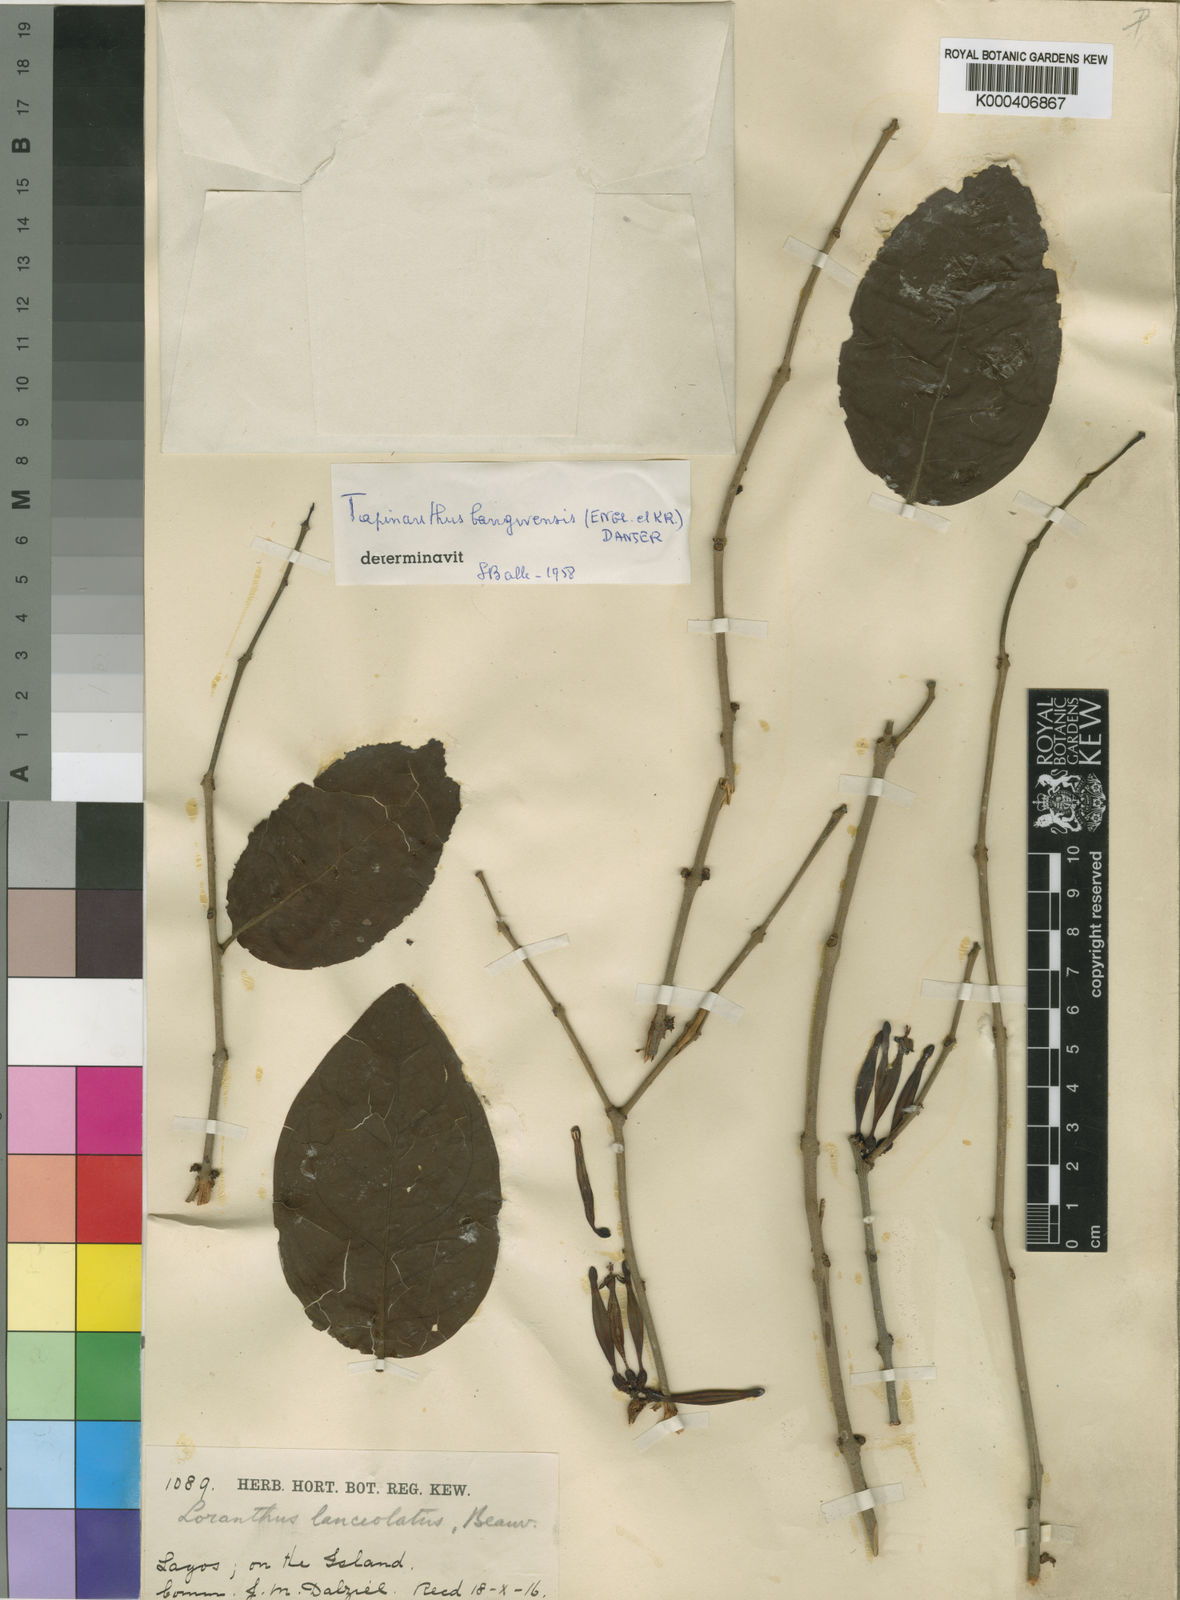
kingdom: Plantae
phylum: Tracheophyta
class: Magnoliopsida
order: Santalales
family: Loranthaceae
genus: Tapinanthus
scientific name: Tapinanthus
